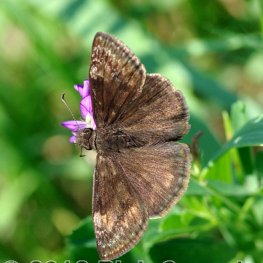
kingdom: Animalia
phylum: Arthropoda
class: Insecta
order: Lepidoptera
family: Hesperiidae
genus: Gesta
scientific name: Gesta
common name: Wild Indigo Duskywing
